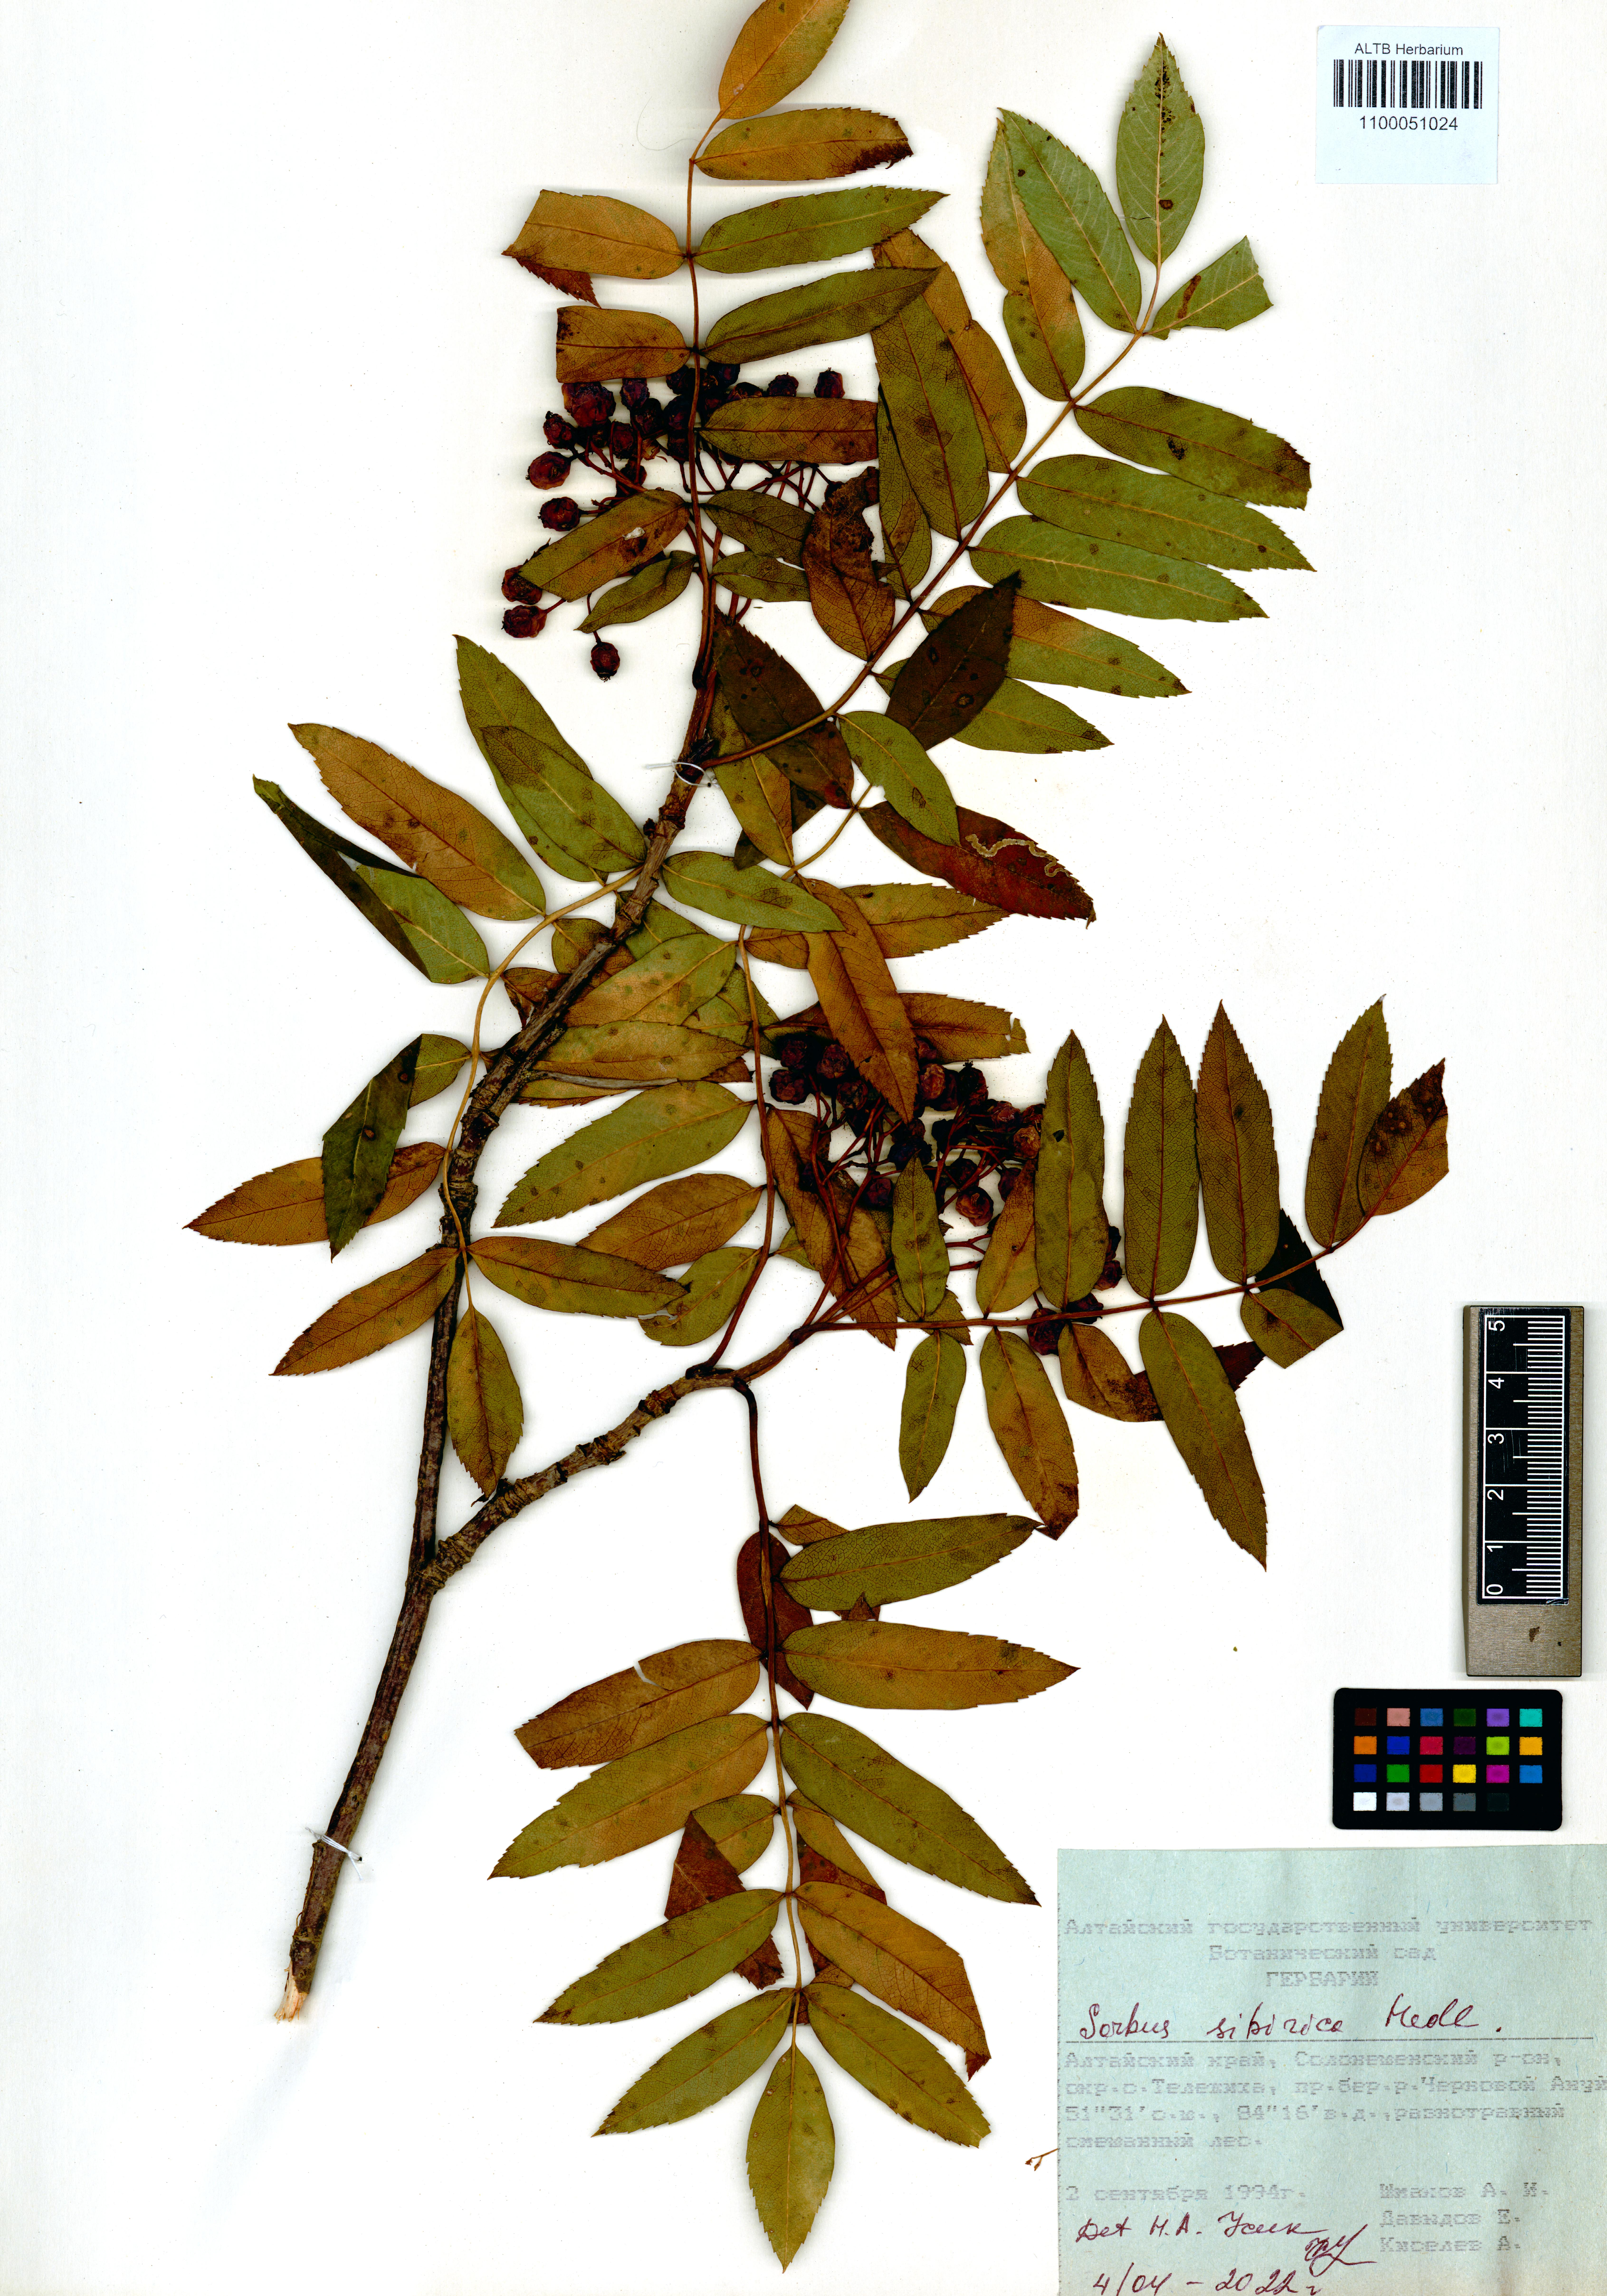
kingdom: Plantae
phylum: Tracheophyta
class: Magnoliopsida
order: Rosales
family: Rosaceae
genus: Sorbus
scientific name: Sorbus aucuparia
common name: Rowan
